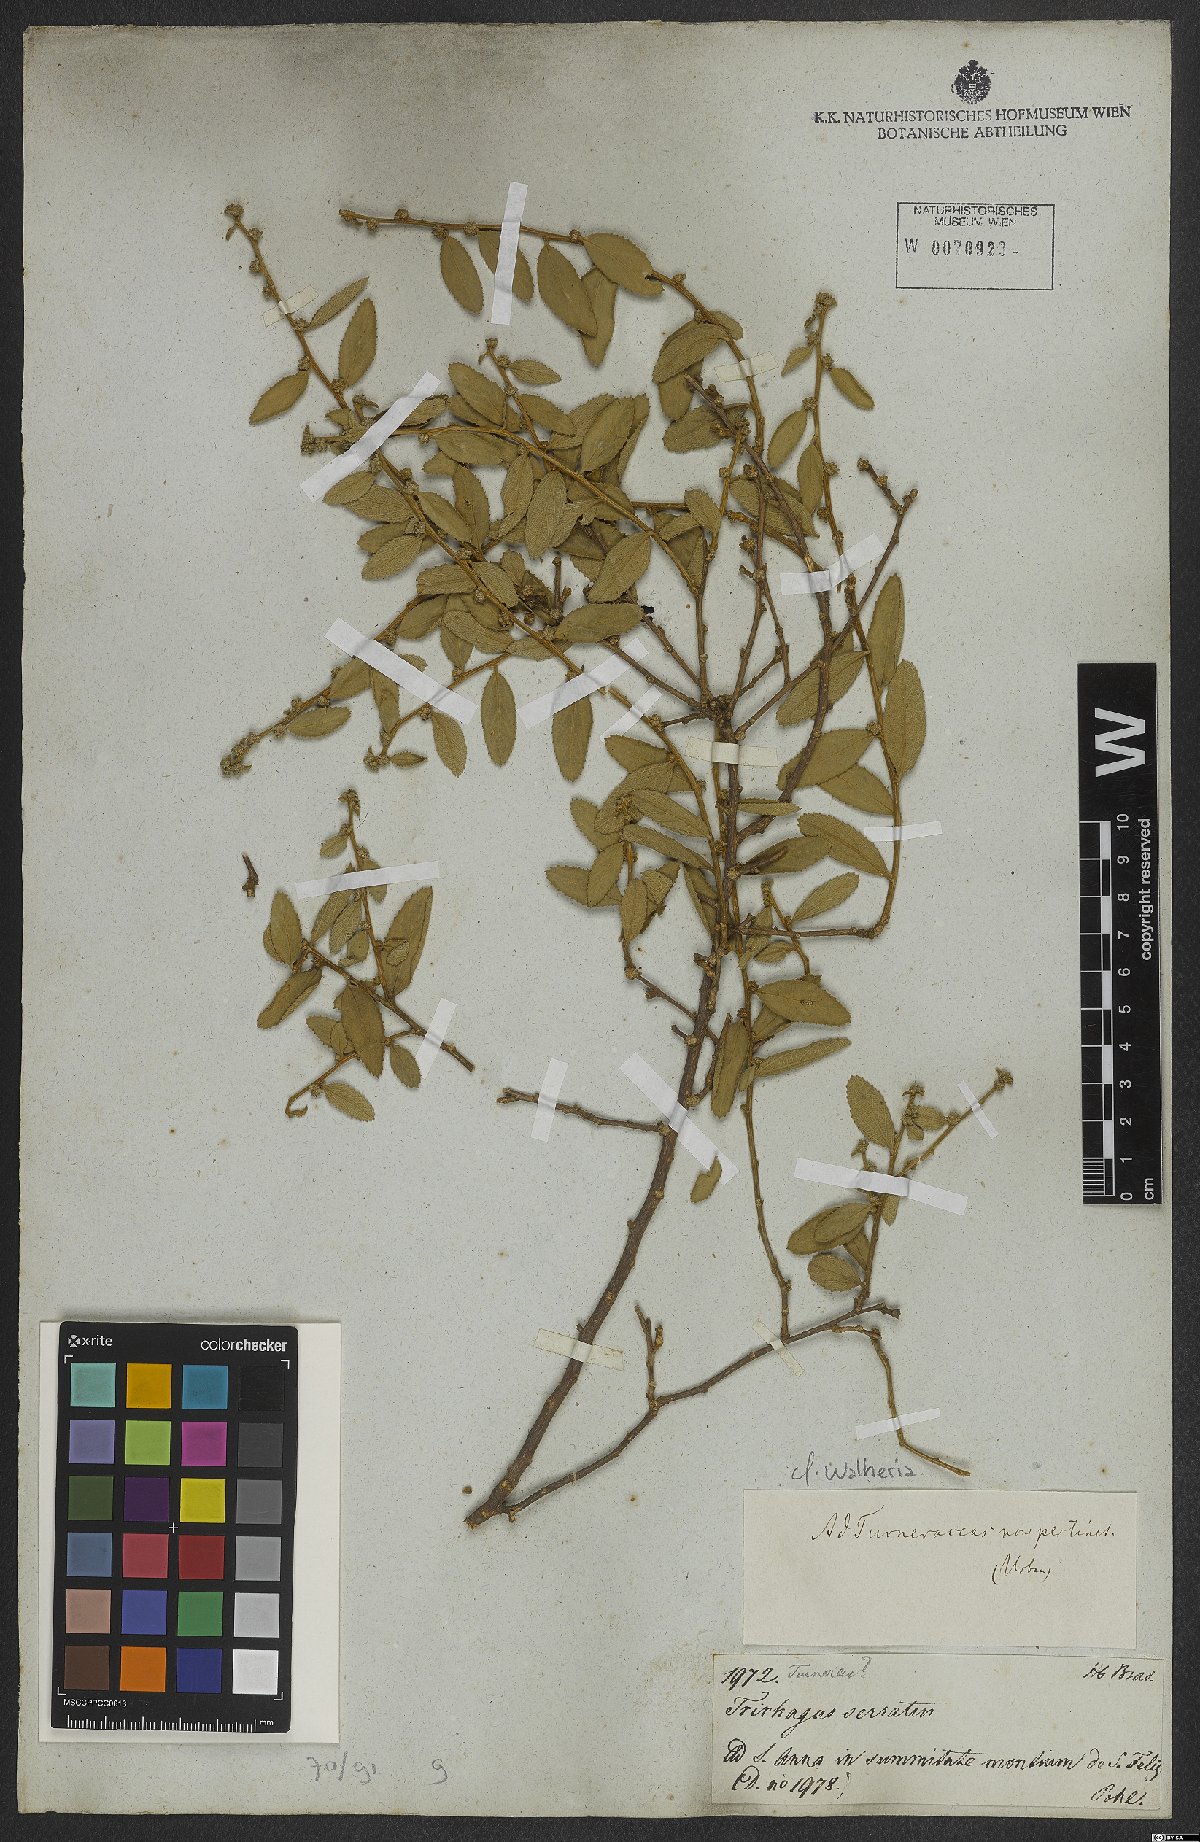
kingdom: Plantae
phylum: Tracheophyta
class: Magnoliopsida
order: Malvales
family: Malvaceae
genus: Waltheria
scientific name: Waltheria
